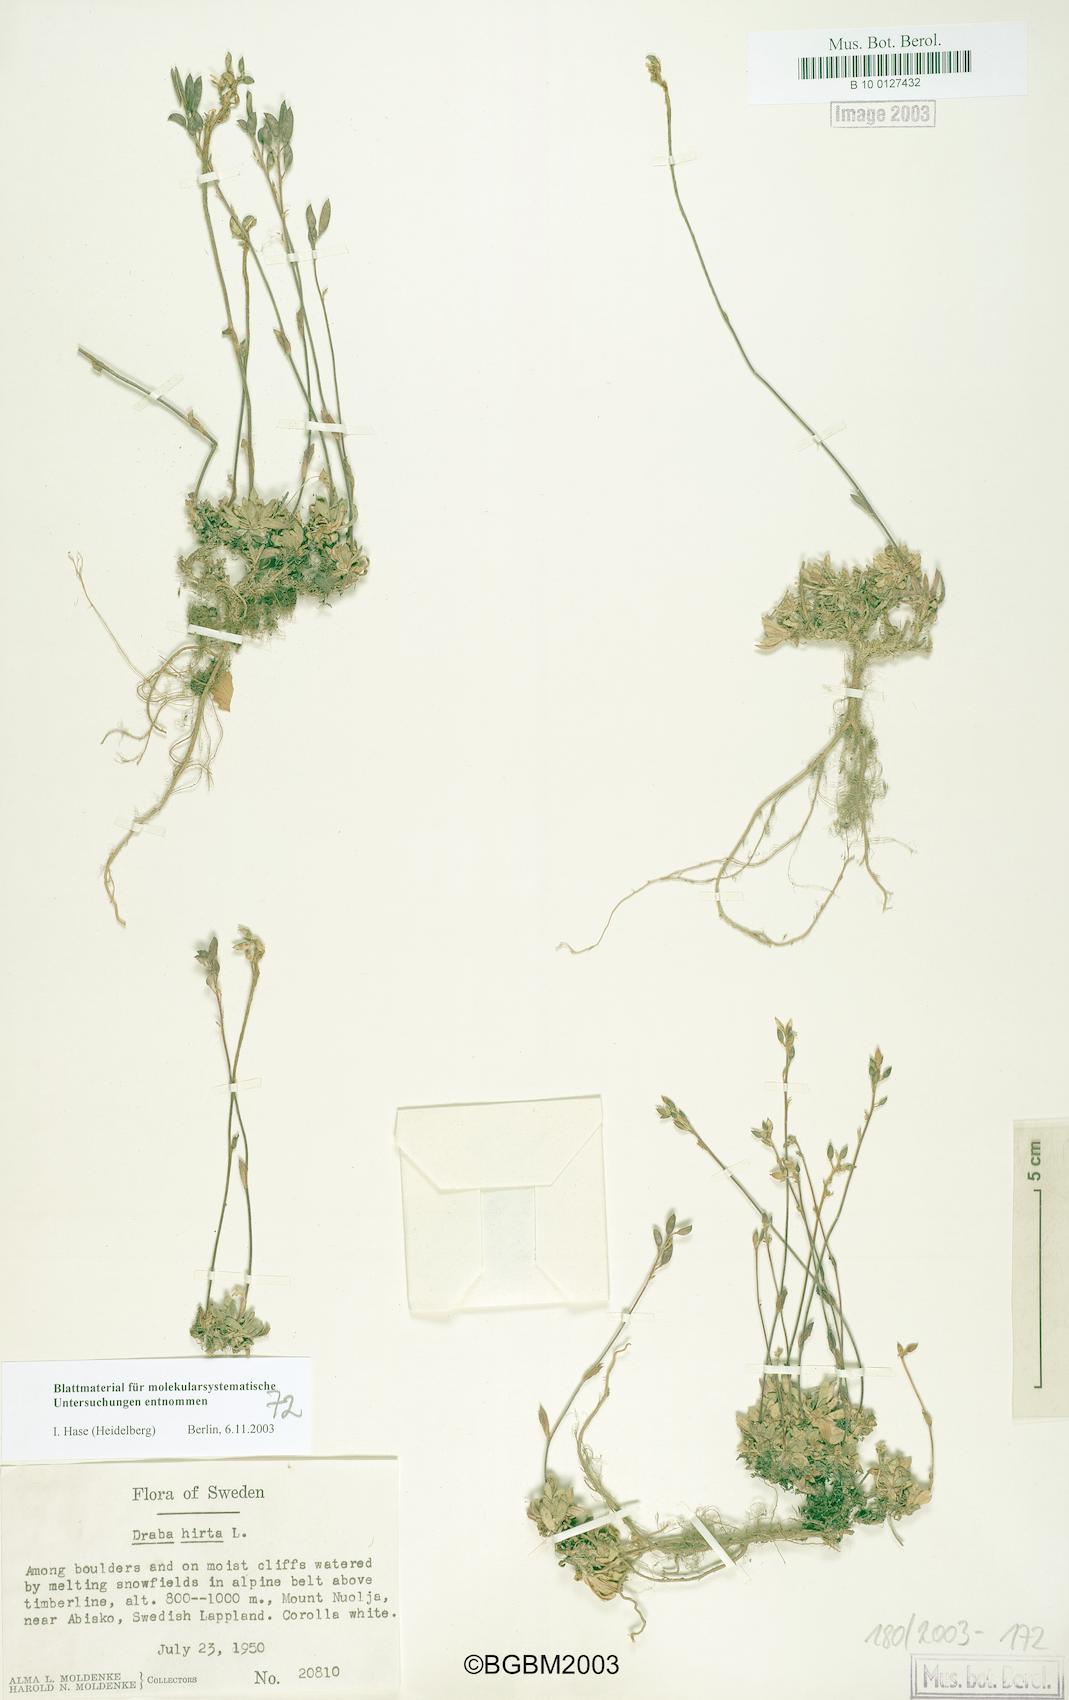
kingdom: Plantae
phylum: Tracheophyta
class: Magnoliopsida
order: Brassicales
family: Brassicaceae
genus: Draba
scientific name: Draba glabella
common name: Glaucous draba
